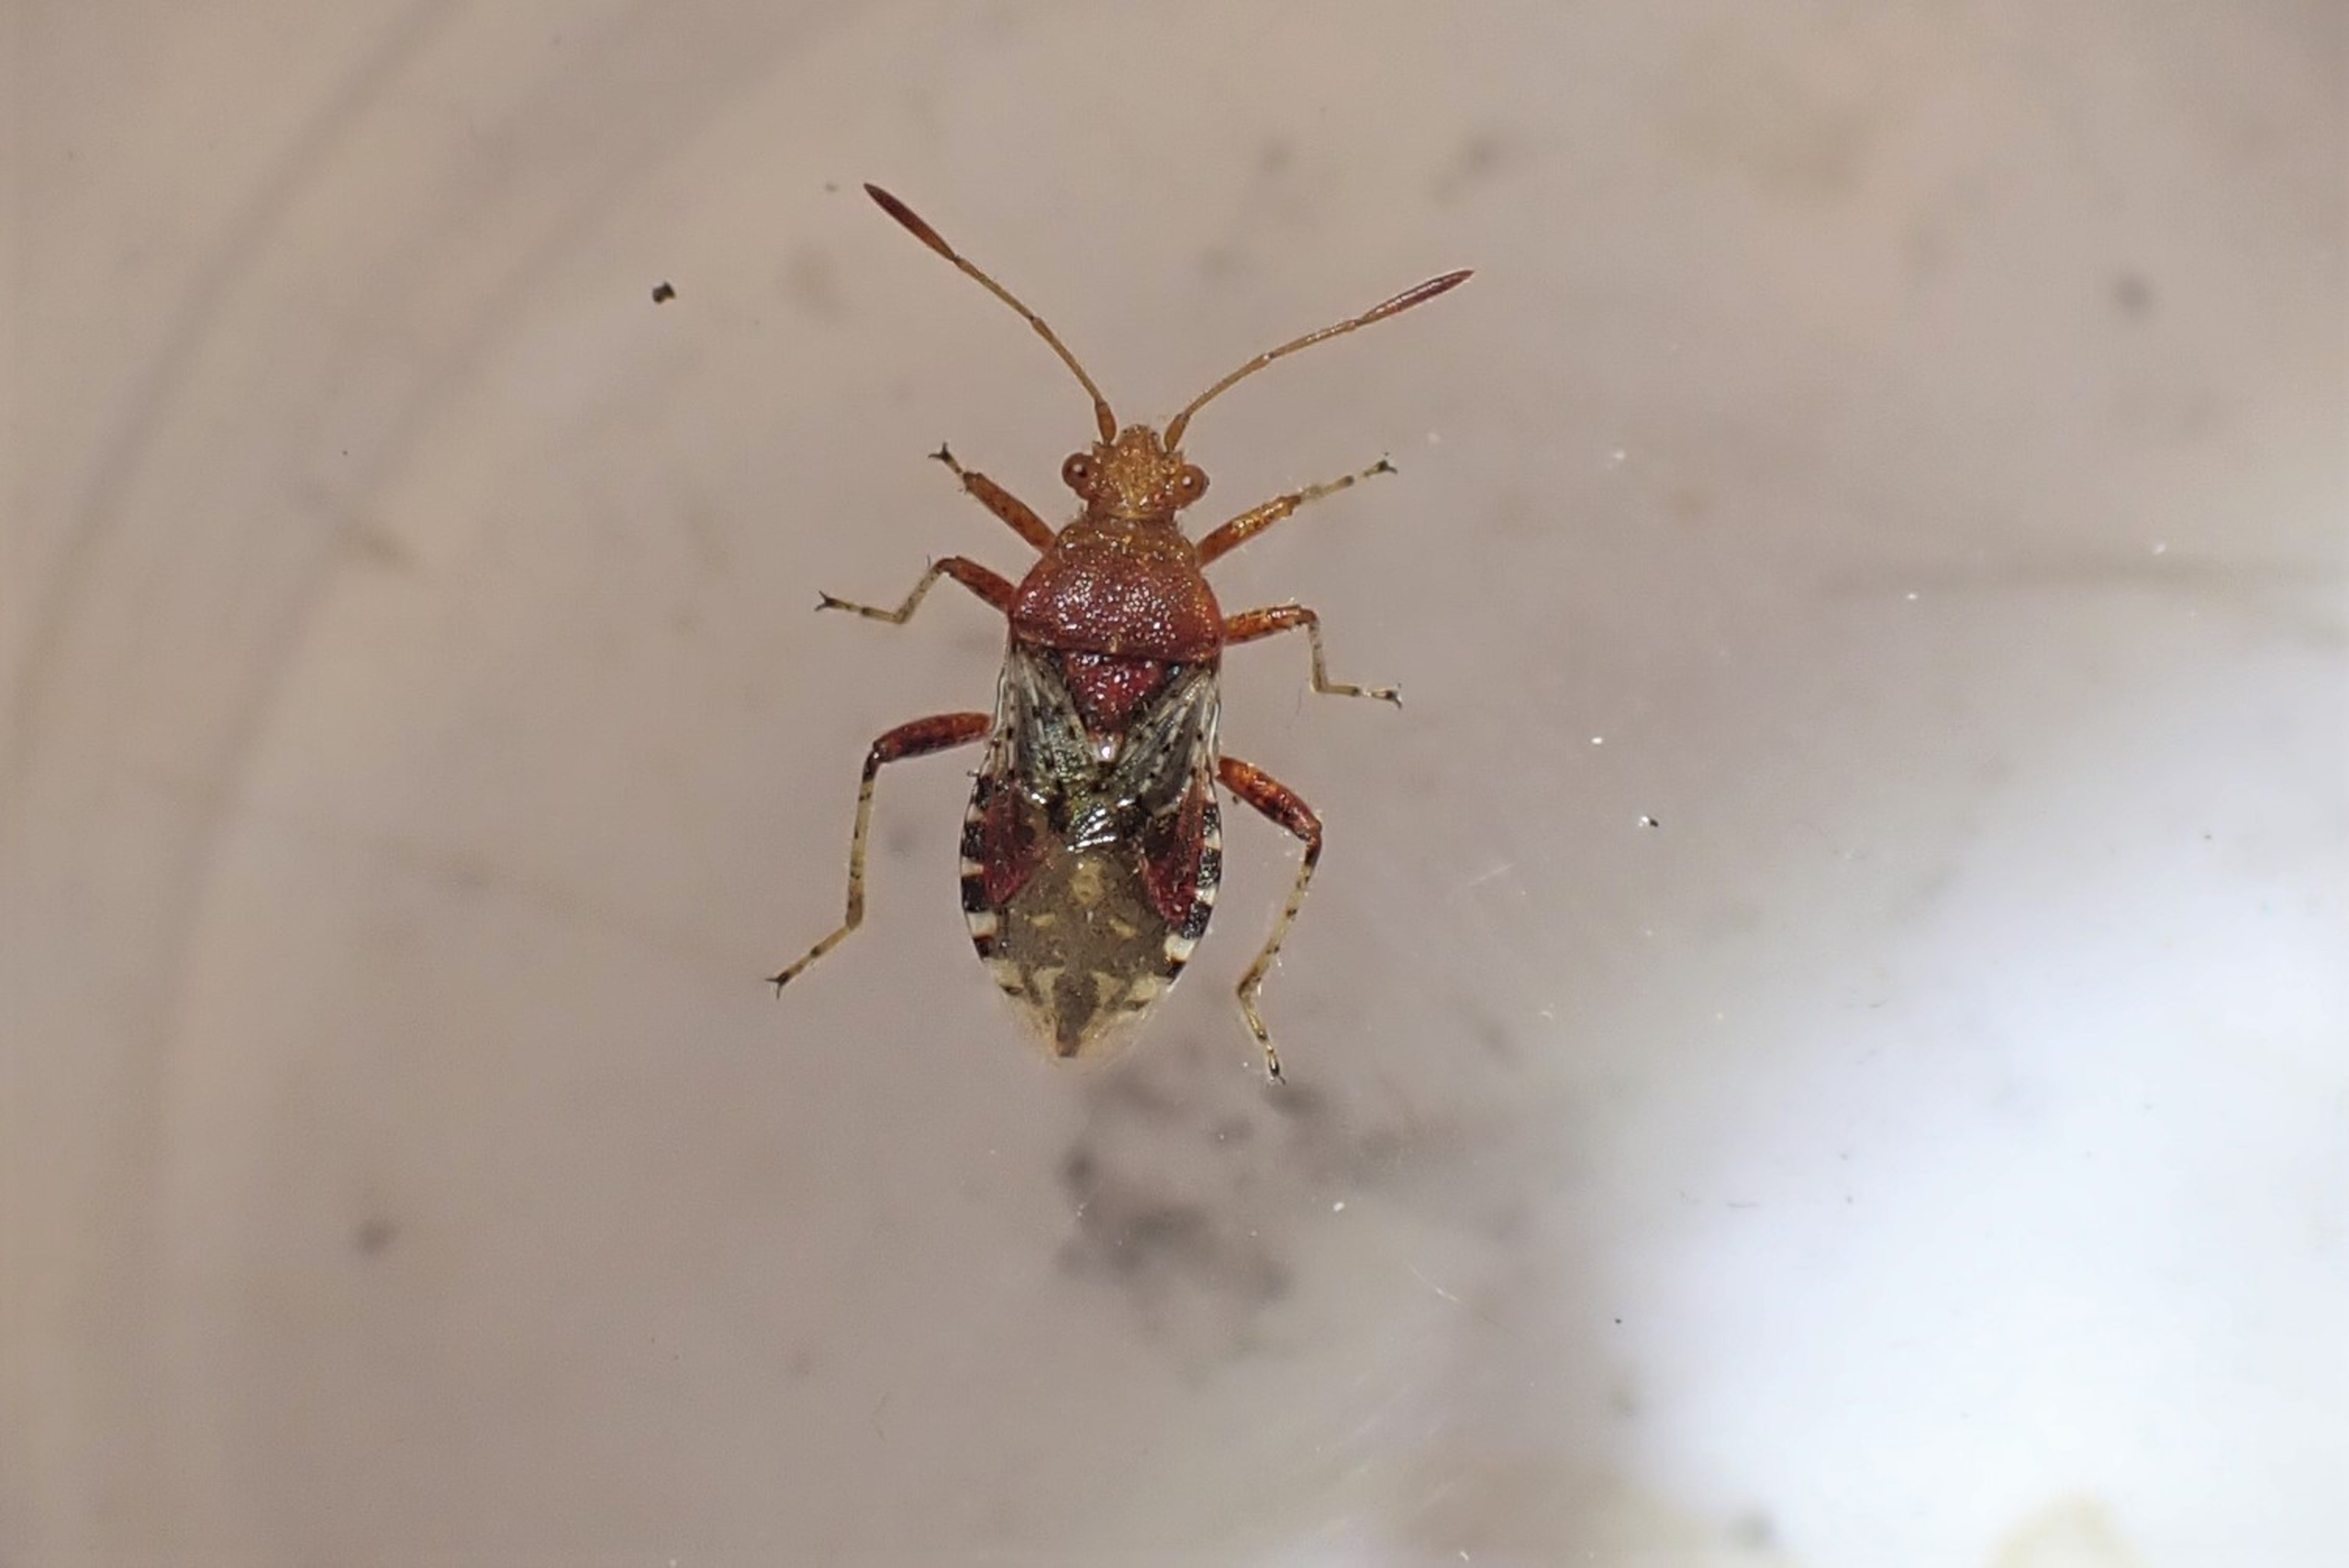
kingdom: Animalia
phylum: Arthropoda
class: Insecta
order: Hemiptera
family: Rhopalidae
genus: Rhopalus
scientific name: Rhopalus subrufus
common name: Skovkanttæge
